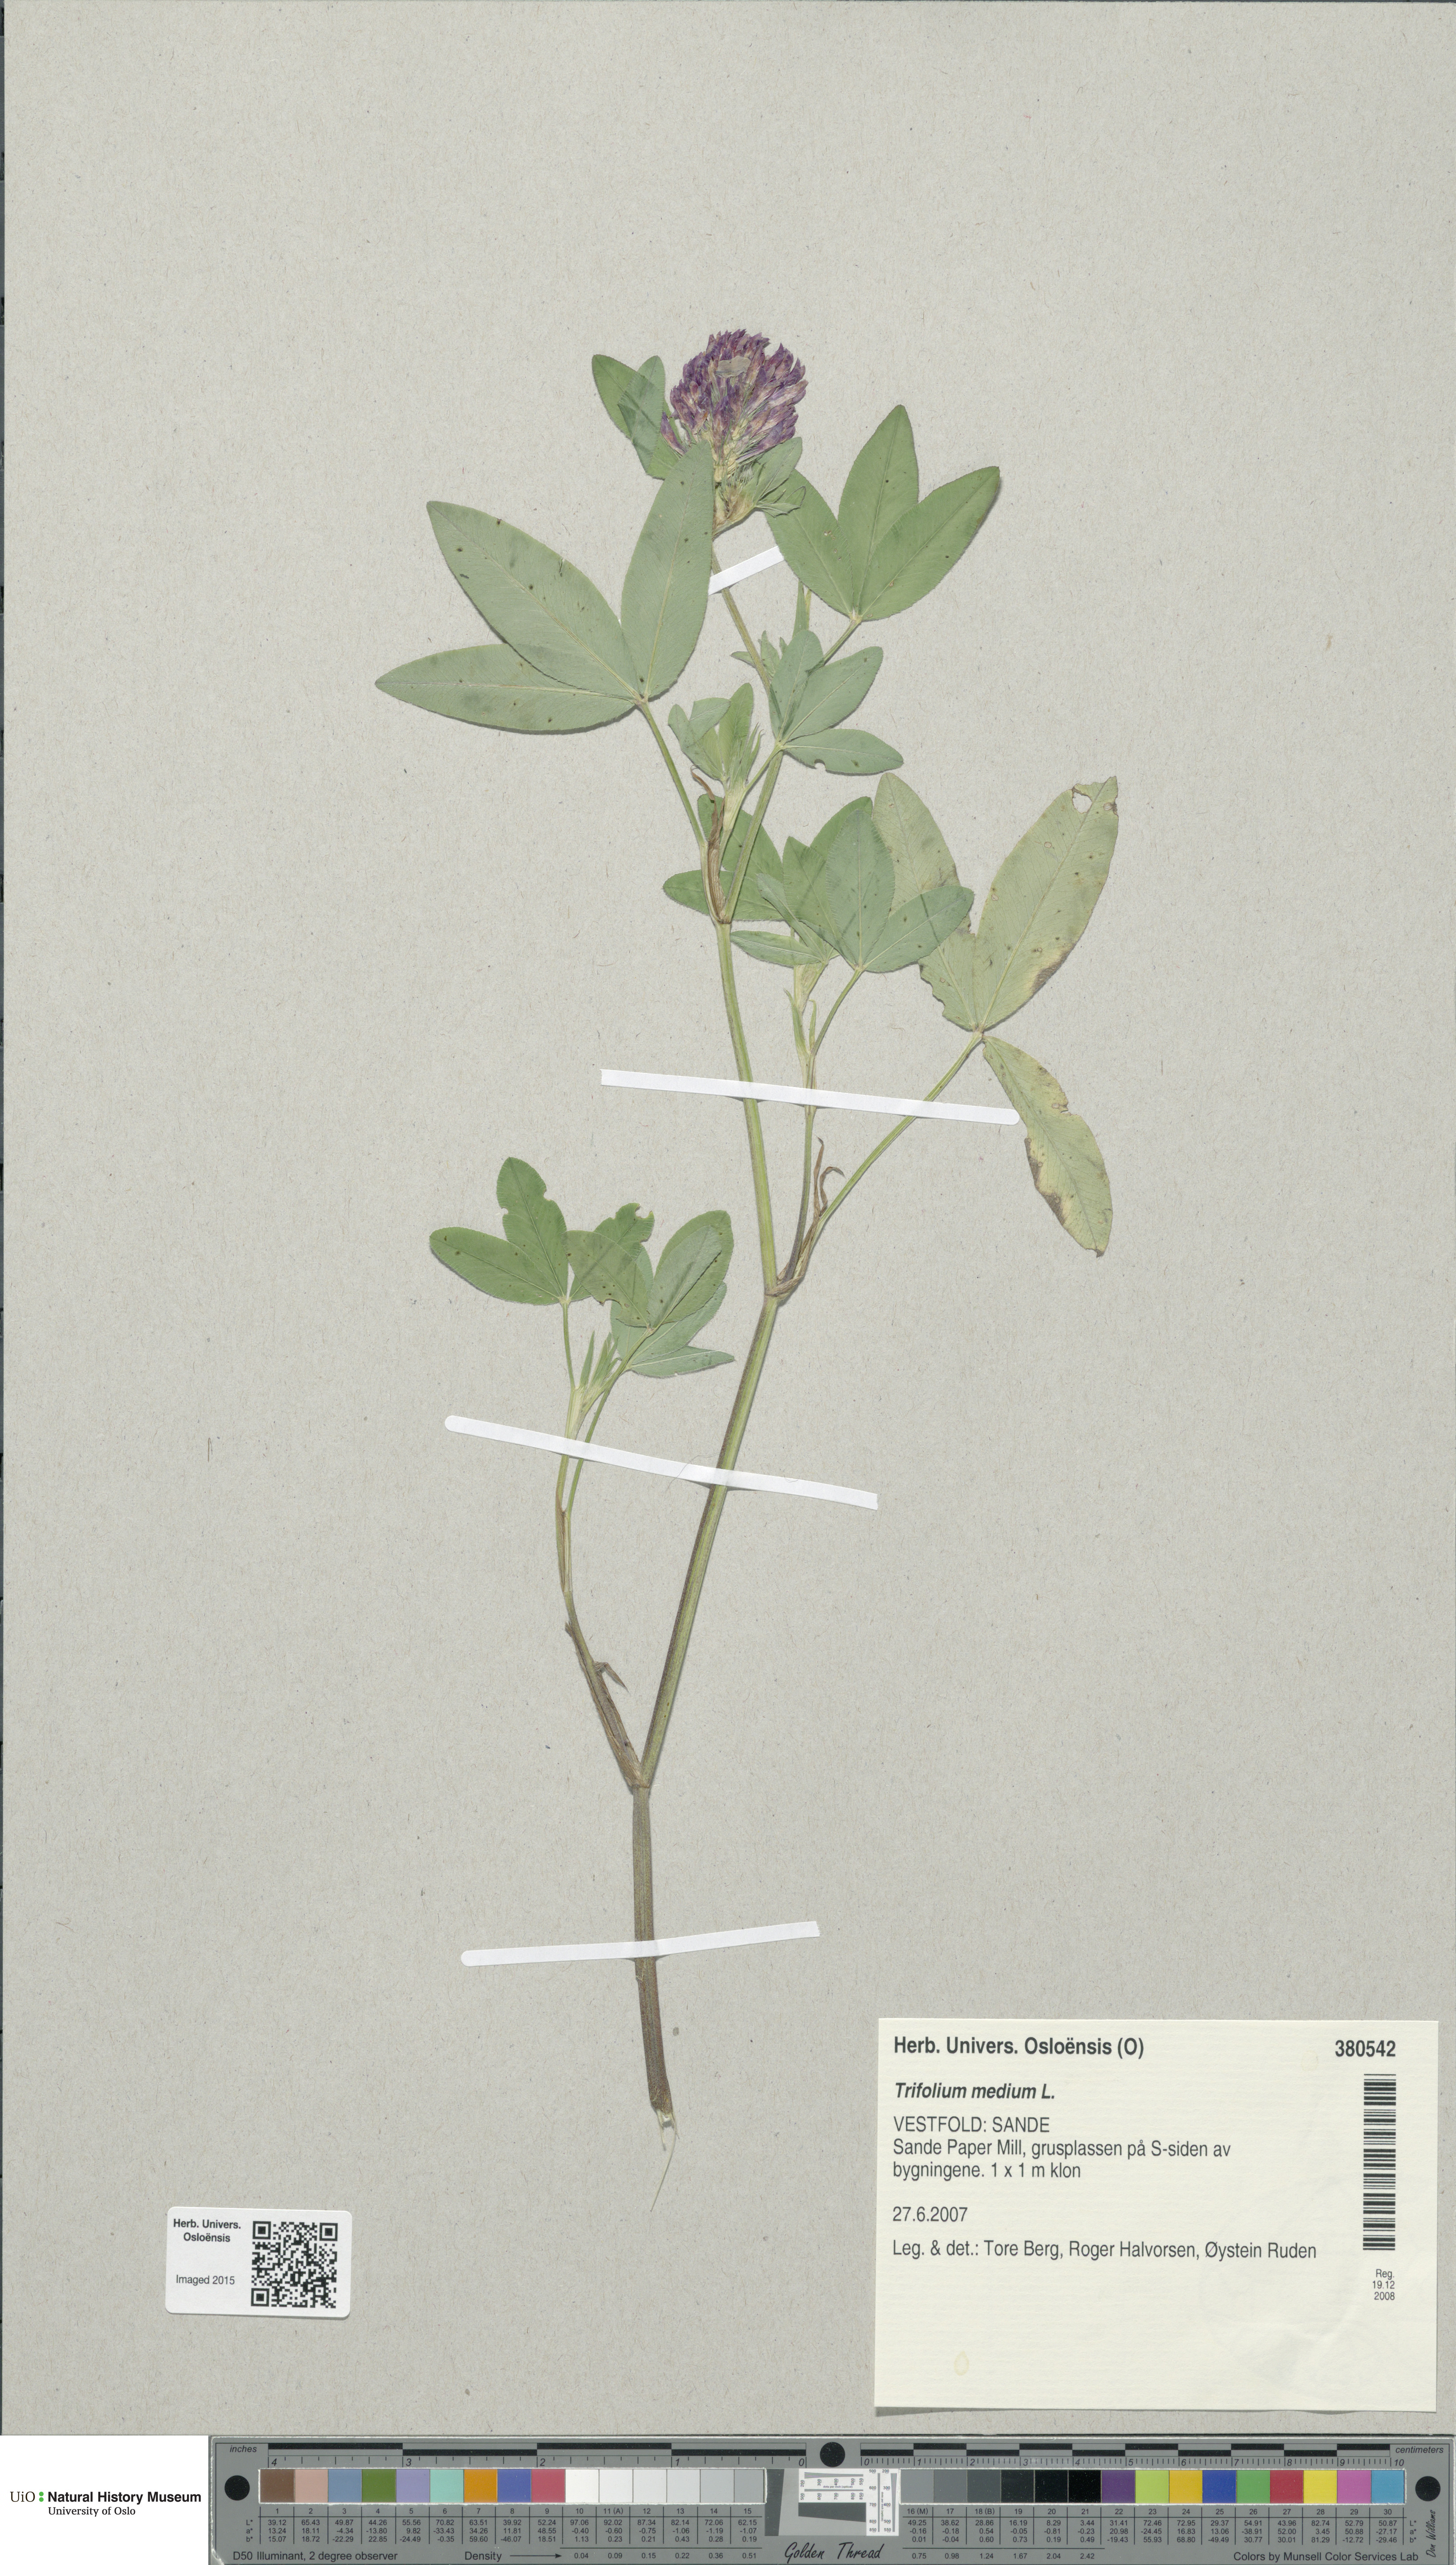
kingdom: Plantae
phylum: Tracheophyta
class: Magnoliopsida
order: Fabales
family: Fabaceae
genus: Trifolium
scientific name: Trifolium medium
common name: Zigzag clover
